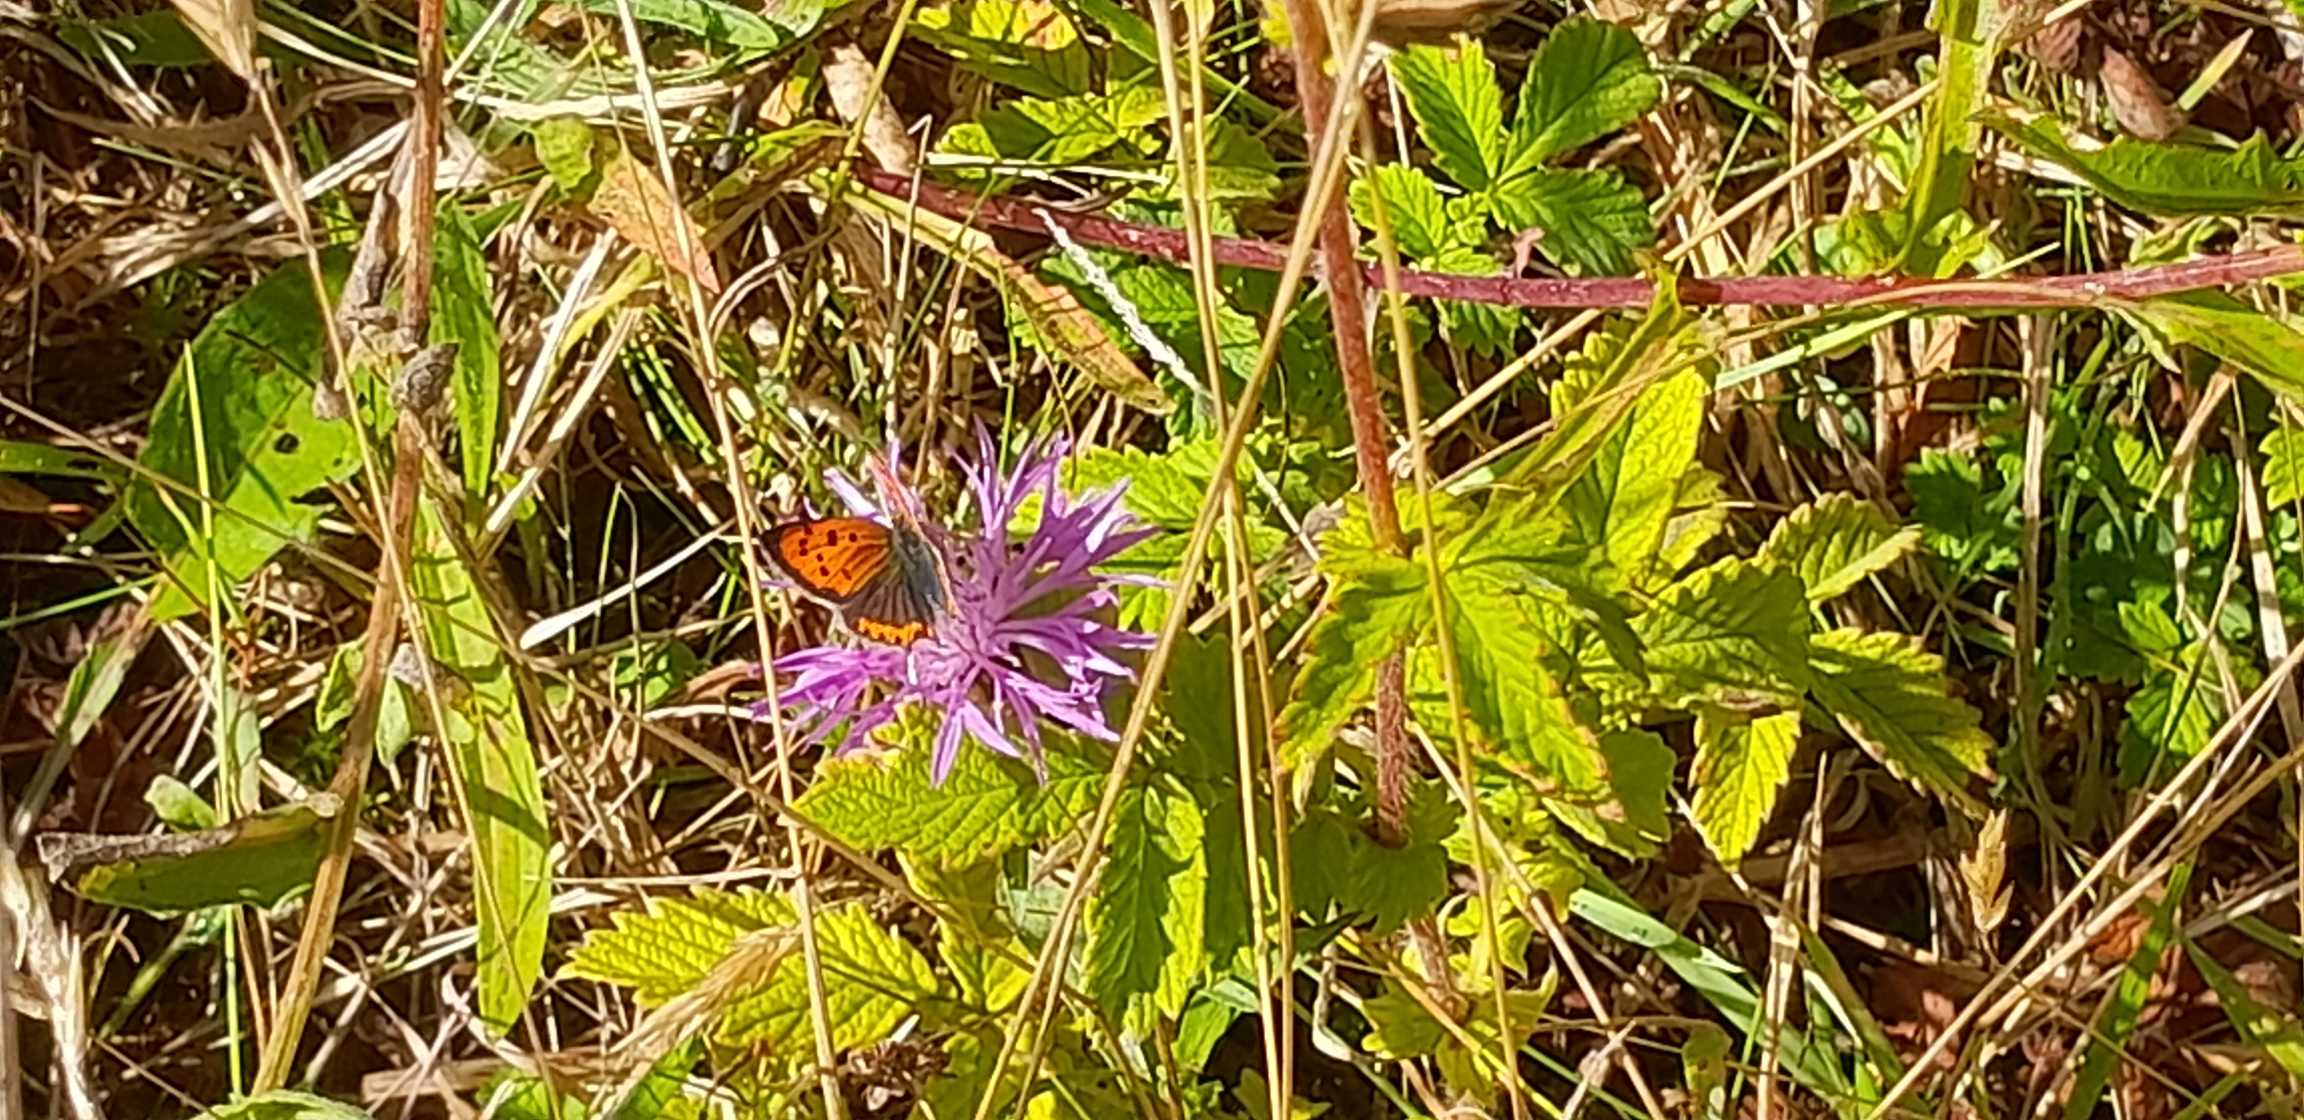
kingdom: Animalia
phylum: Arthropoda
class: Insecta
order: Lepidoptera
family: Lycaenidae
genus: Lycaena
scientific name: Lycaena phlaeas
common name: Lille ildfugl
